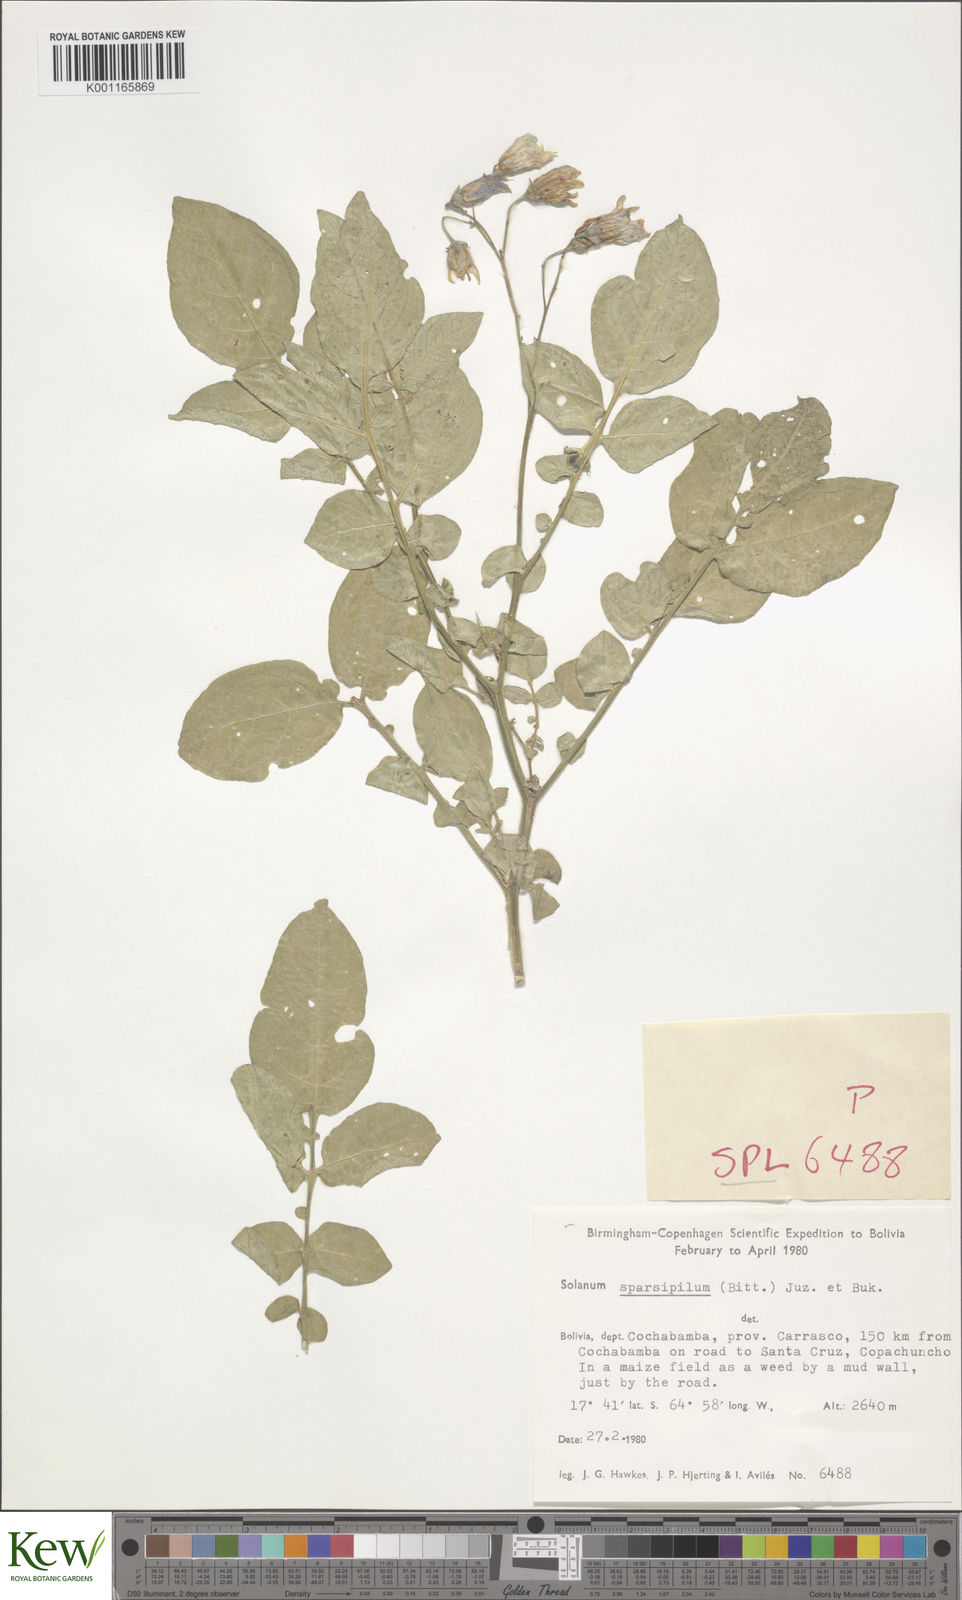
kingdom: Plantae
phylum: Tracheophyta
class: Magnoliopsida
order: Solanales
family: Solanaceae
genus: Solanum
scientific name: Solanum brevicaule
